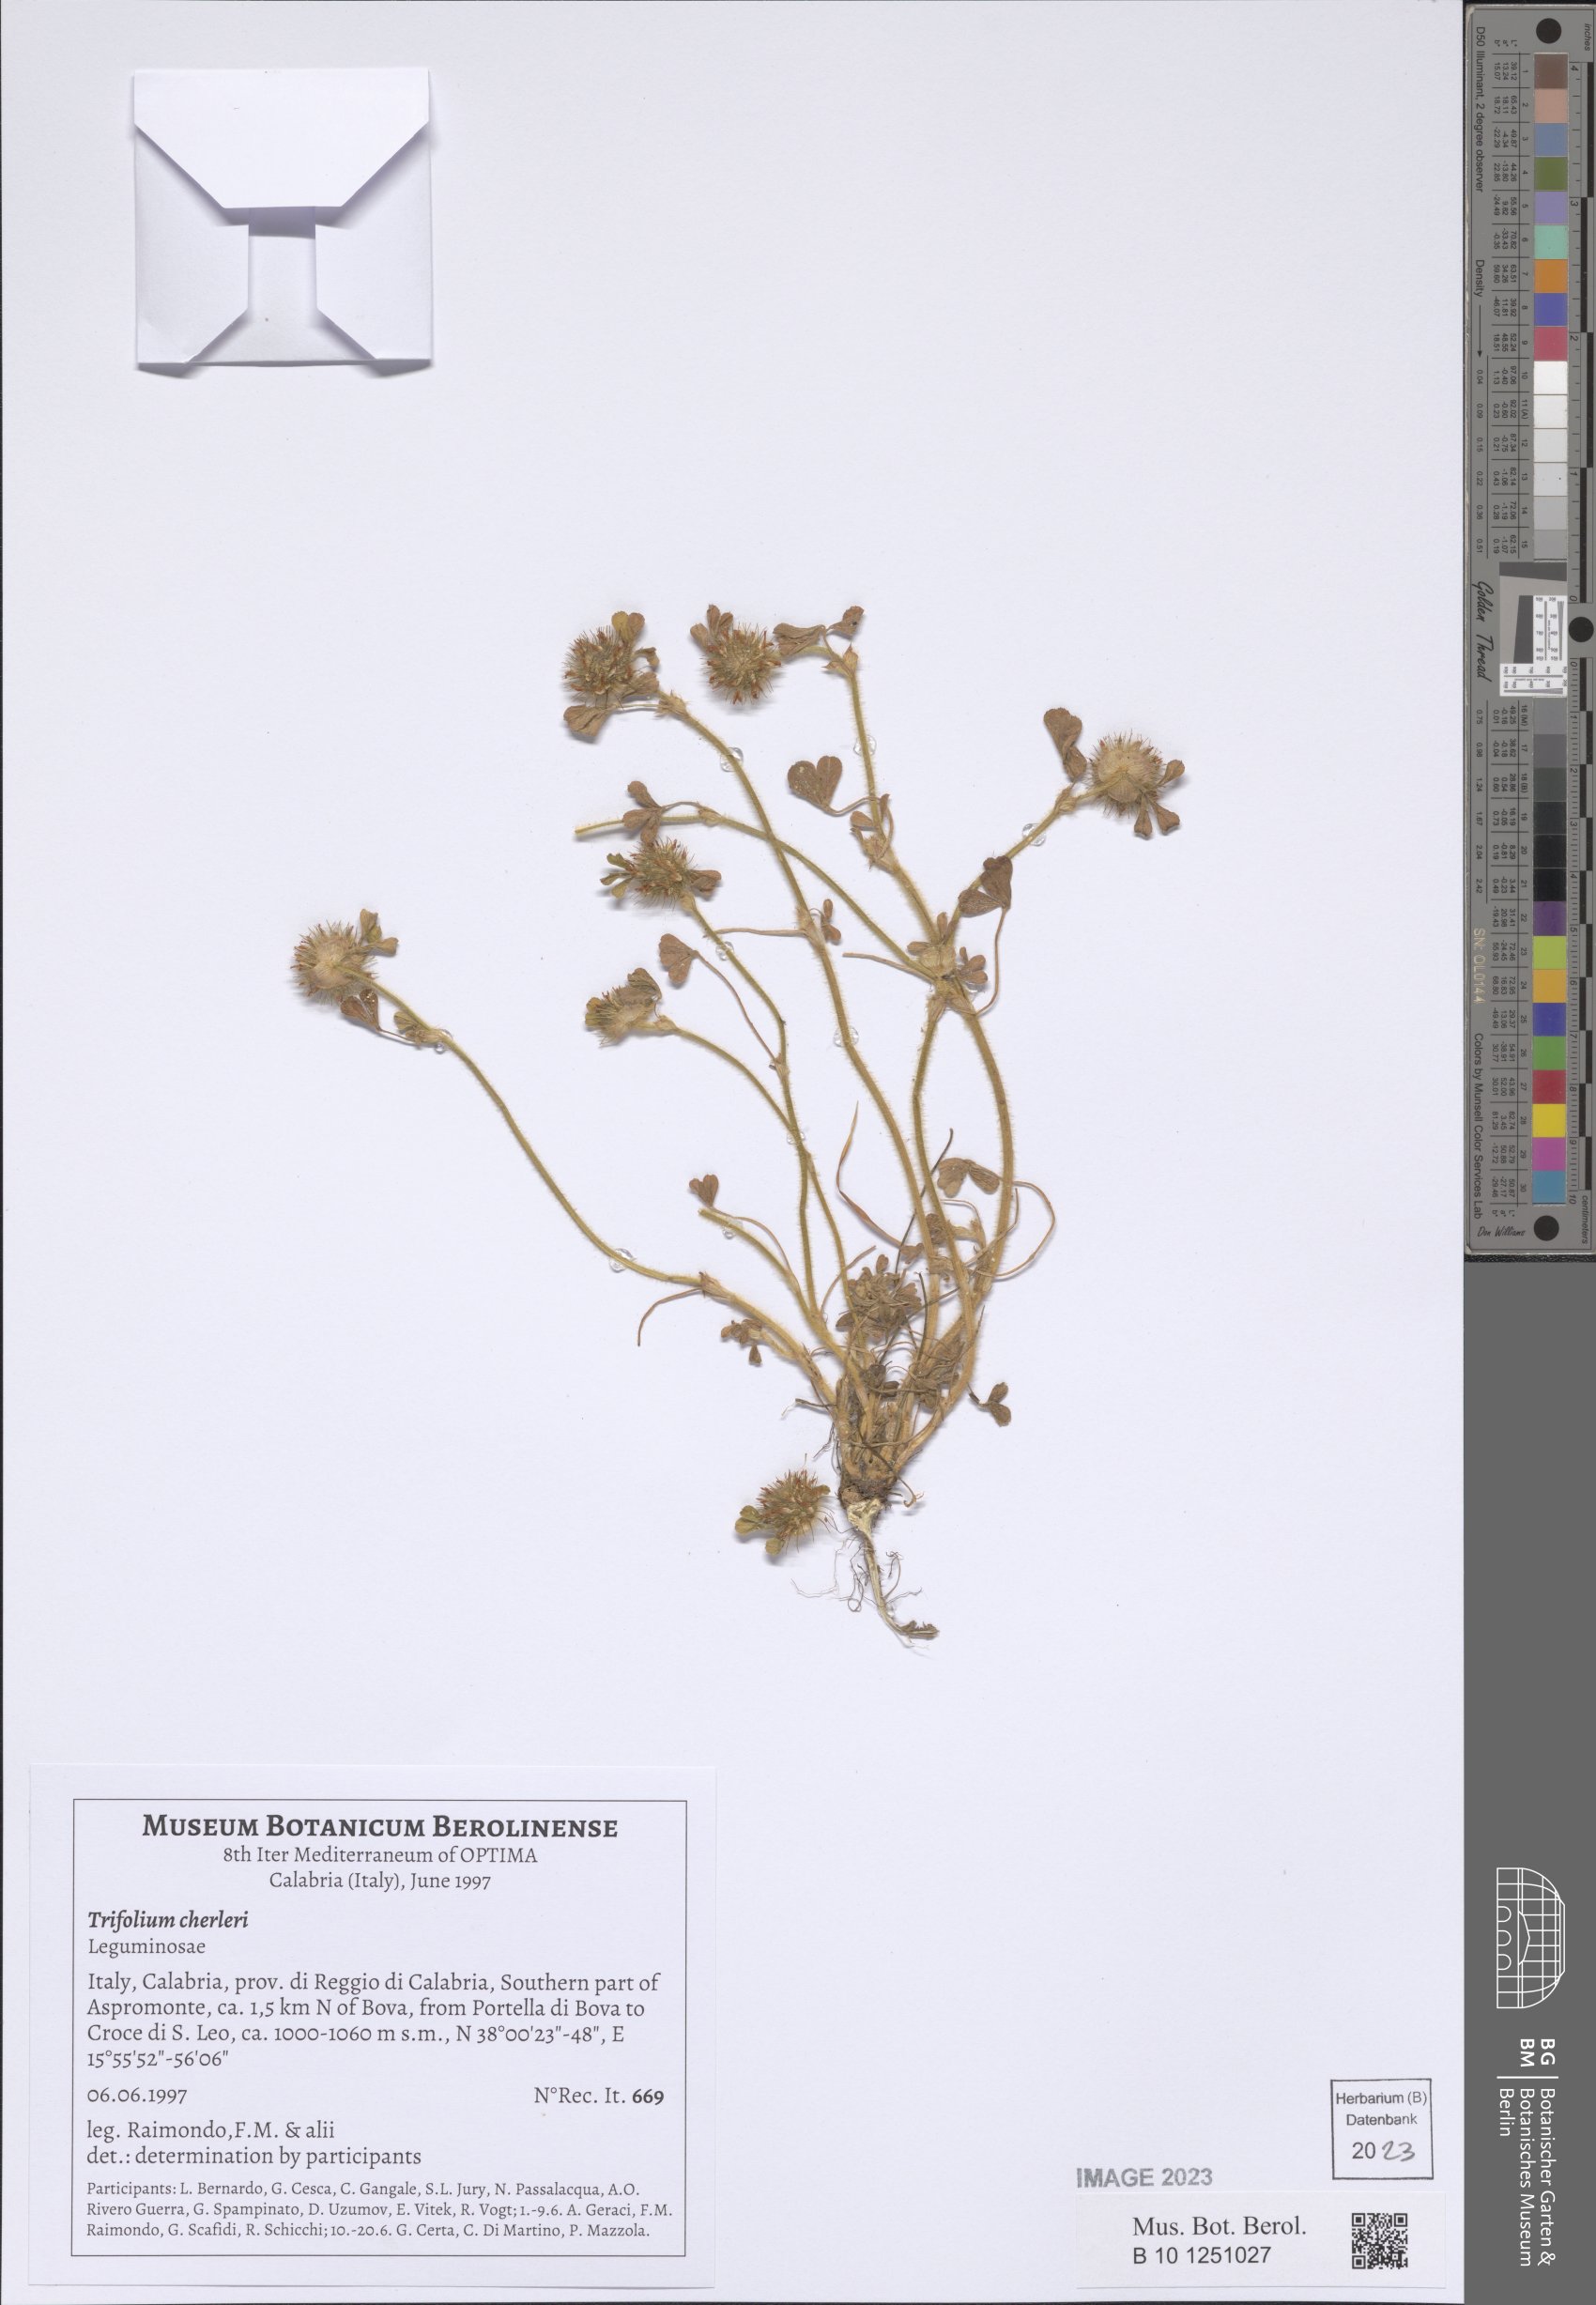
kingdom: Plantae
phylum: Tracheophyta
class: Magnoliopsida
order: Fabales
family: Fabaceae
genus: Trifolium
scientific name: Trifolium cherleri
